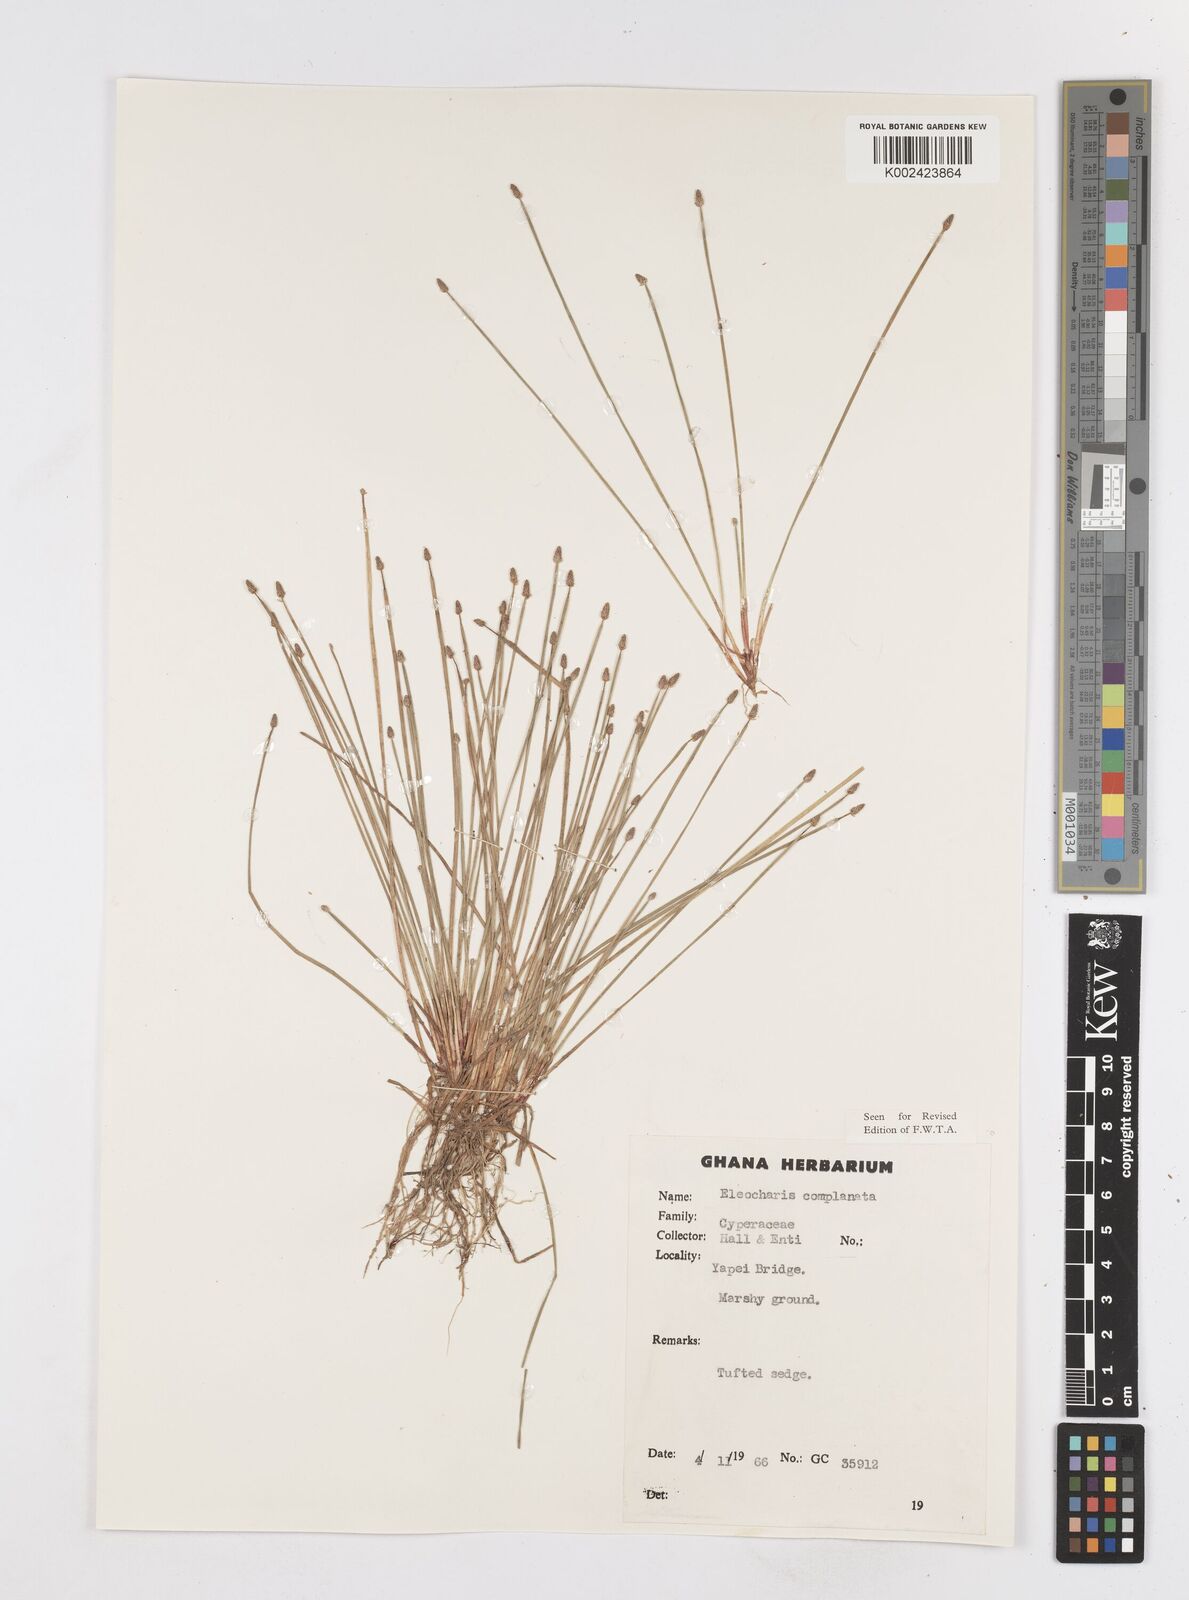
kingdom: Plantae
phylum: Tracheophyta
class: Liliopsida
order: Poales
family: Cyperaceae
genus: Eleocharis
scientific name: Eleocharis complanata
